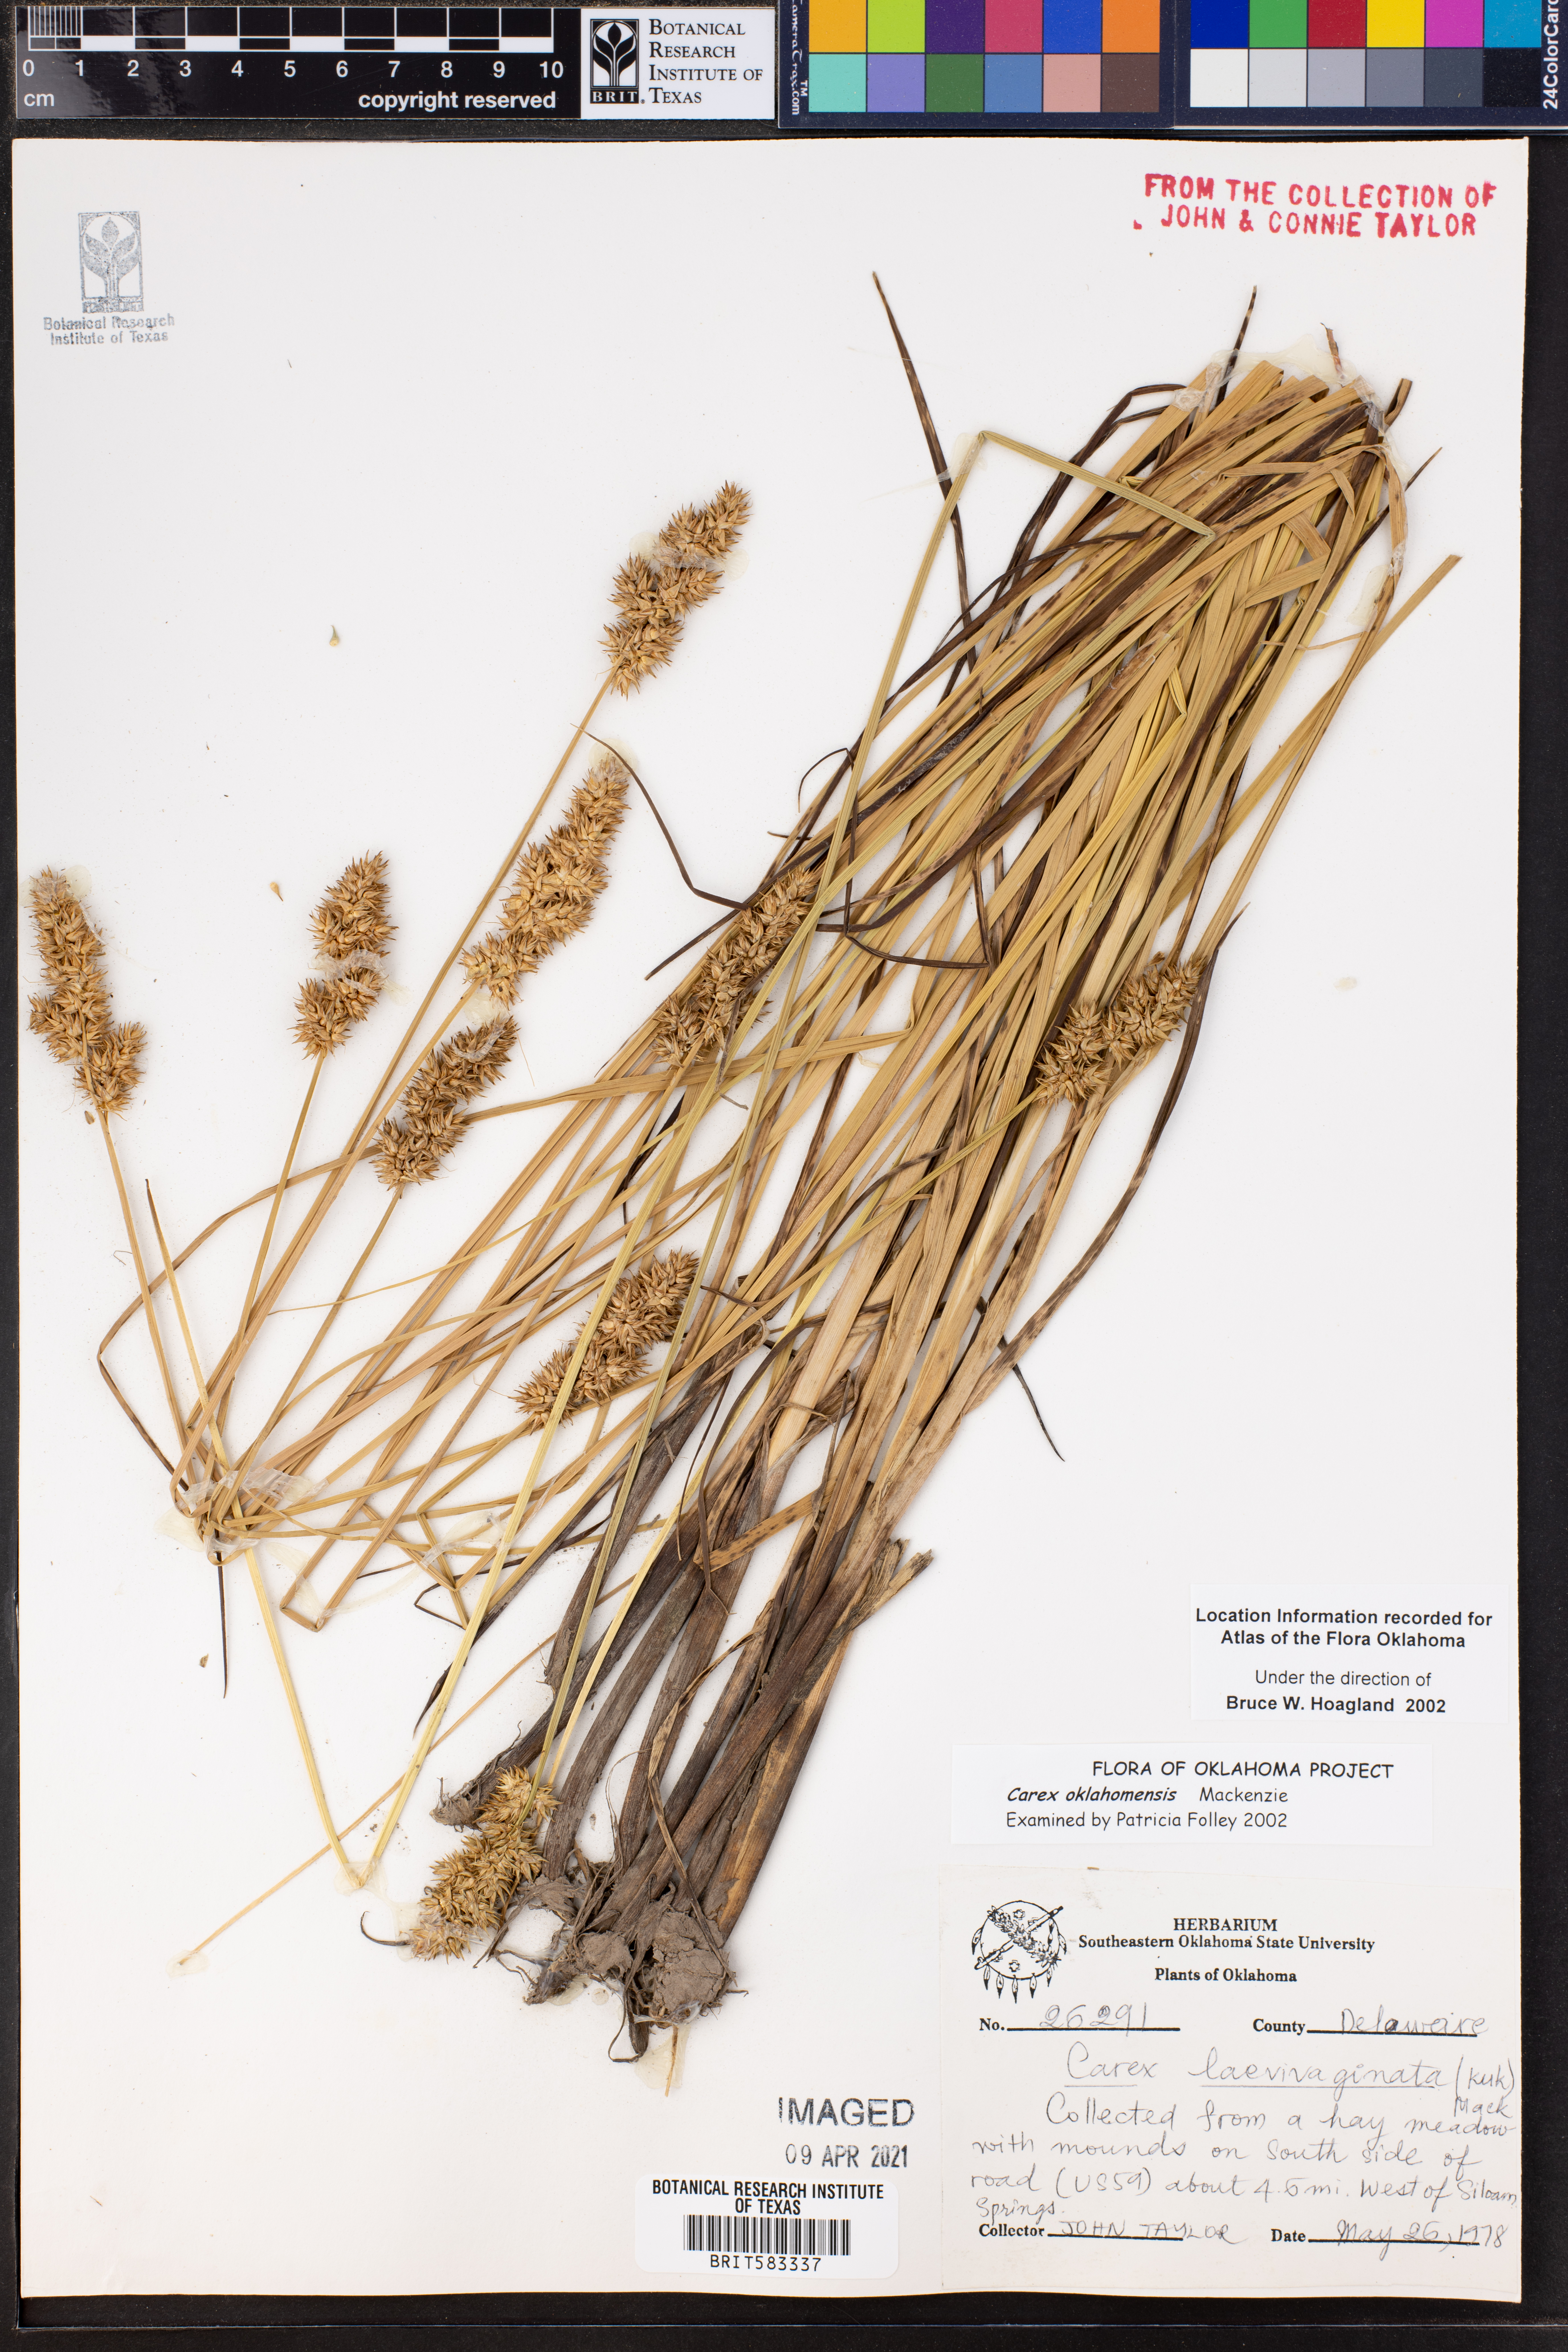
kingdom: Plantae
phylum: Tracheophyta
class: Liliopsida
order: Poales
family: Cyperaceae
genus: Carex
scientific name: Carex oklahomensis
